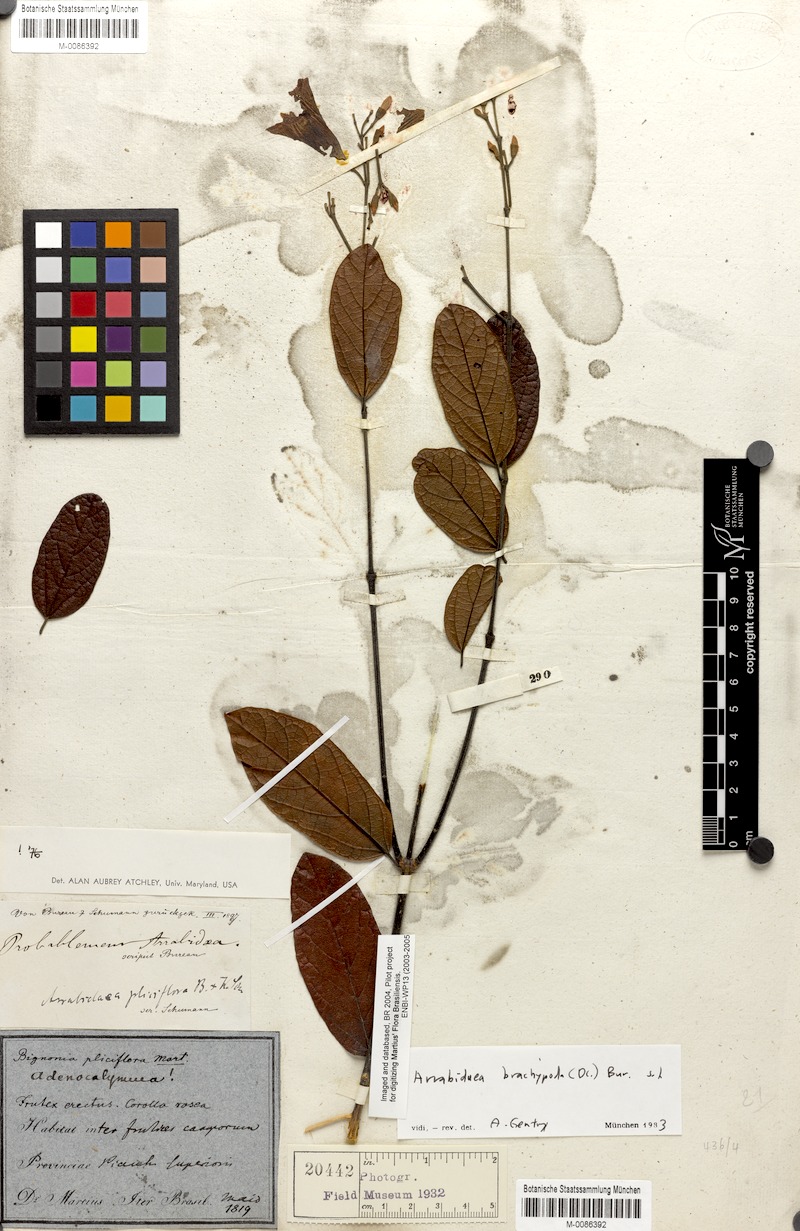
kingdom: Plantae
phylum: Tracheophyta
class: Magnoliopsida
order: Lamiales
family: Bignoniaceae
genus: Fridericia
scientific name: Fridericia pliciflora
